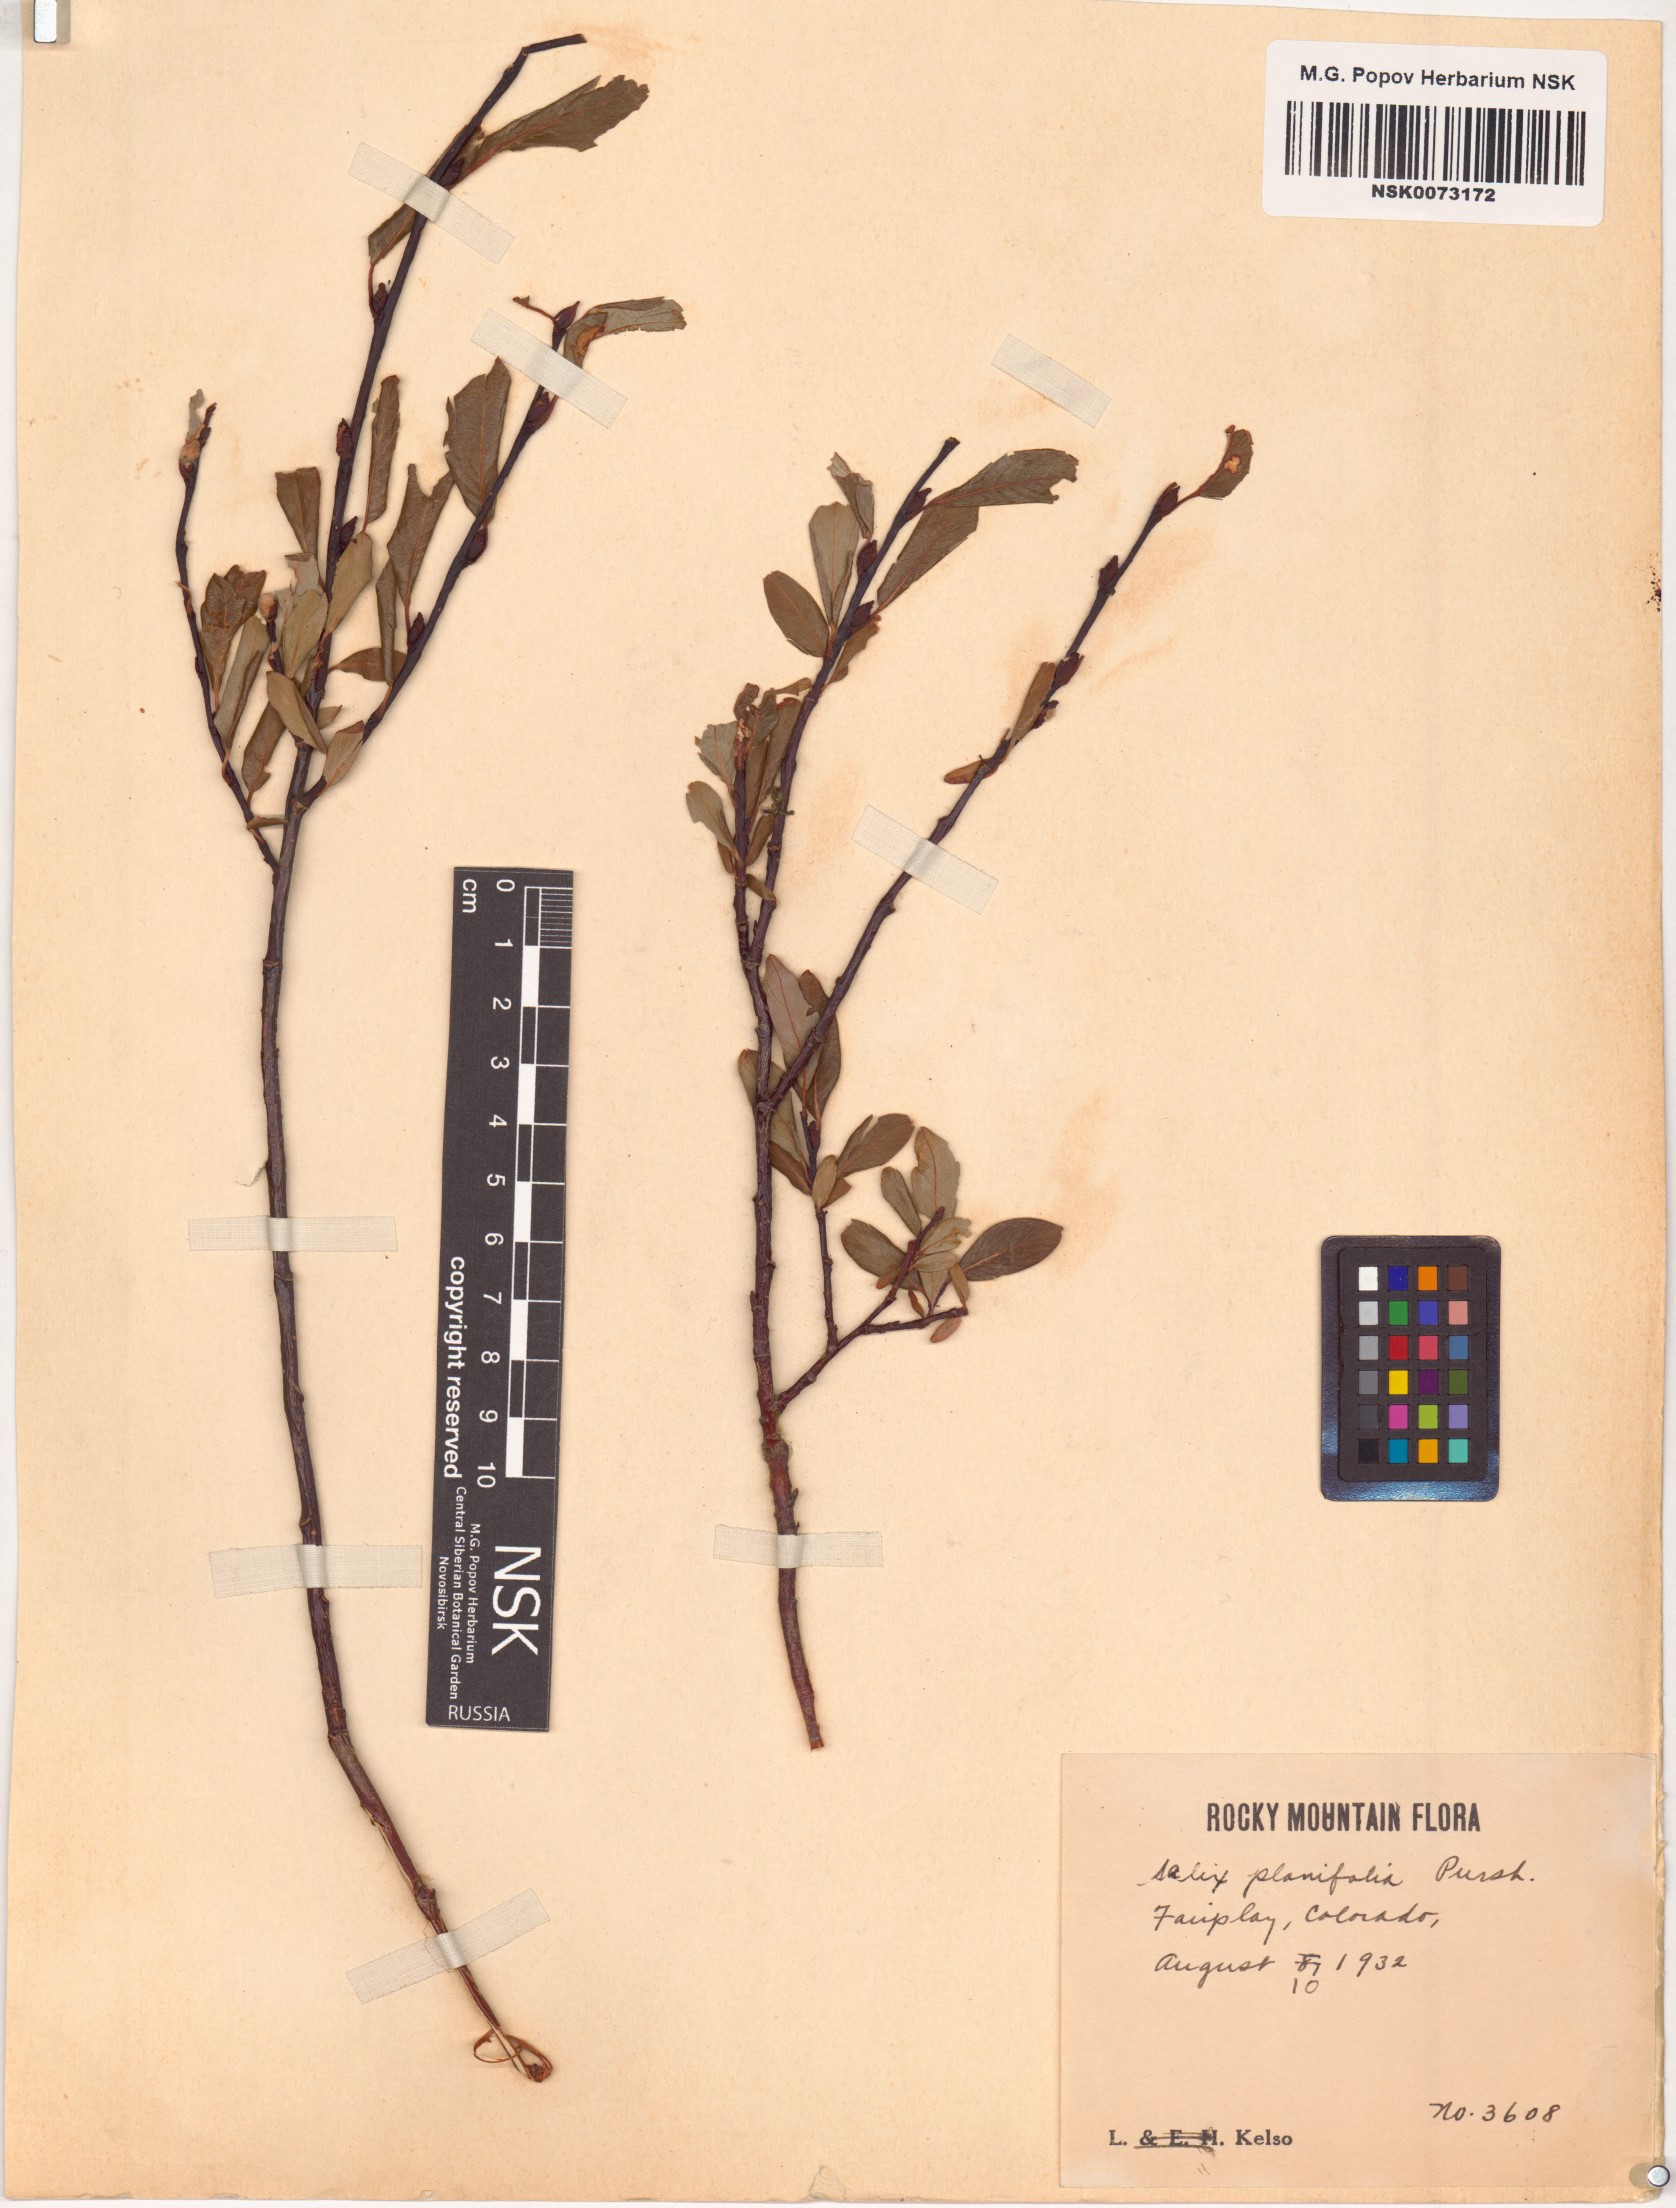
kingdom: Plantae
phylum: Tracheophyta
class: Magnoliopsida
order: Malpighiales
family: Salicaceae
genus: Salix
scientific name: Salix planifolia
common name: Mountain willow
